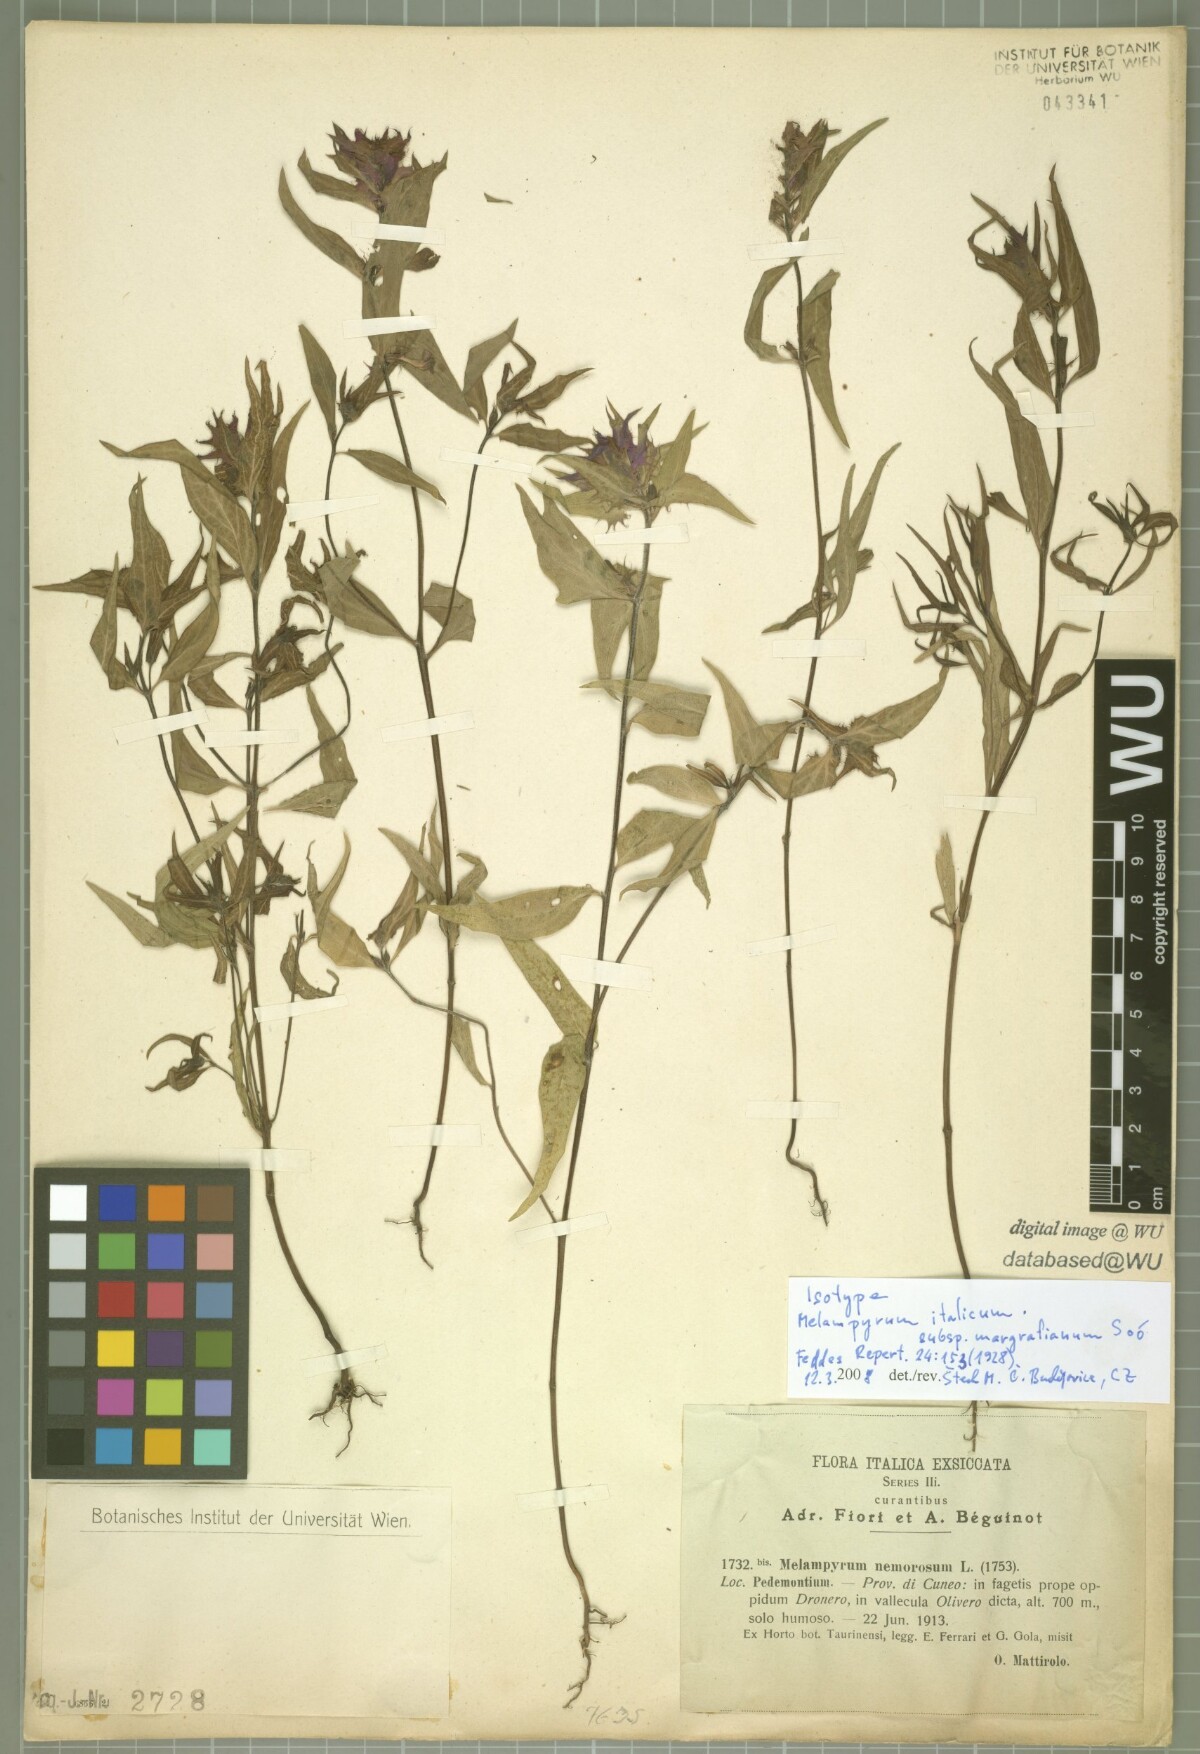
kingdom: Plantae
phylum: Tracheophyta
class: Magnoliopsida
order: Lamiales
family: Orobanchaceae
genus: Melampyrum
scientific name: Melampyrum italicum
